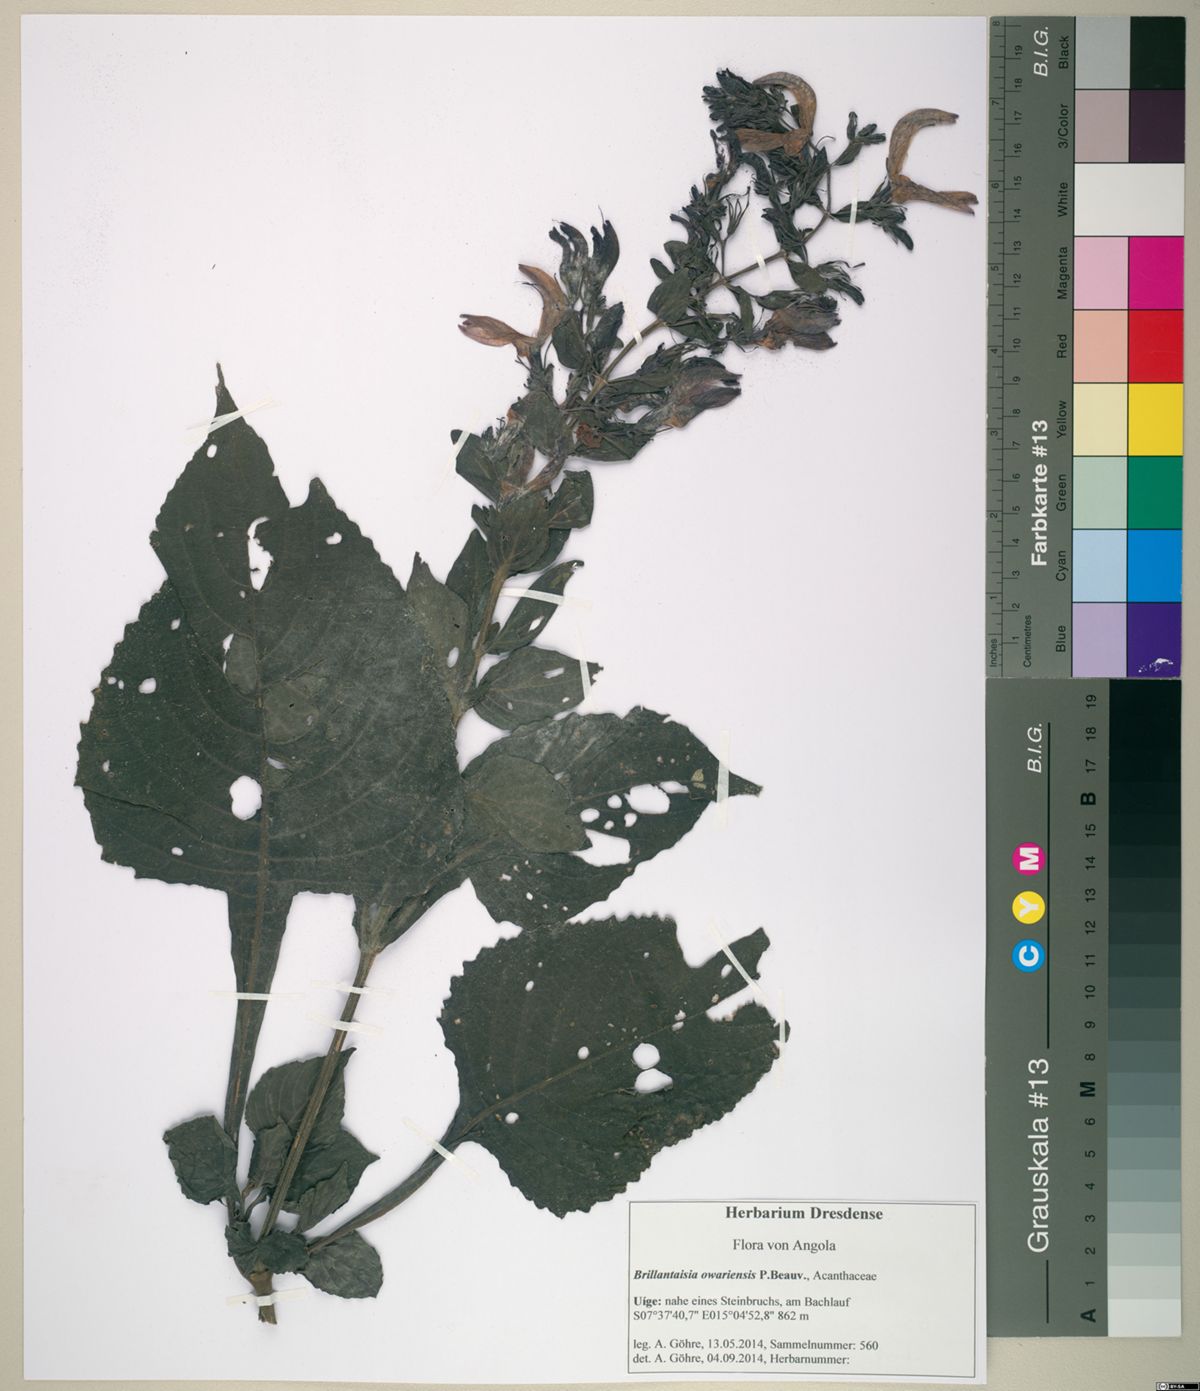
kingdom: Plantae
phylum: Tracheophyta
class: Magnoliopsida
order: Lamiales
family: Acanthaceae
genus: Brillantaisia
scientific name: Brillantaisia owariensis
